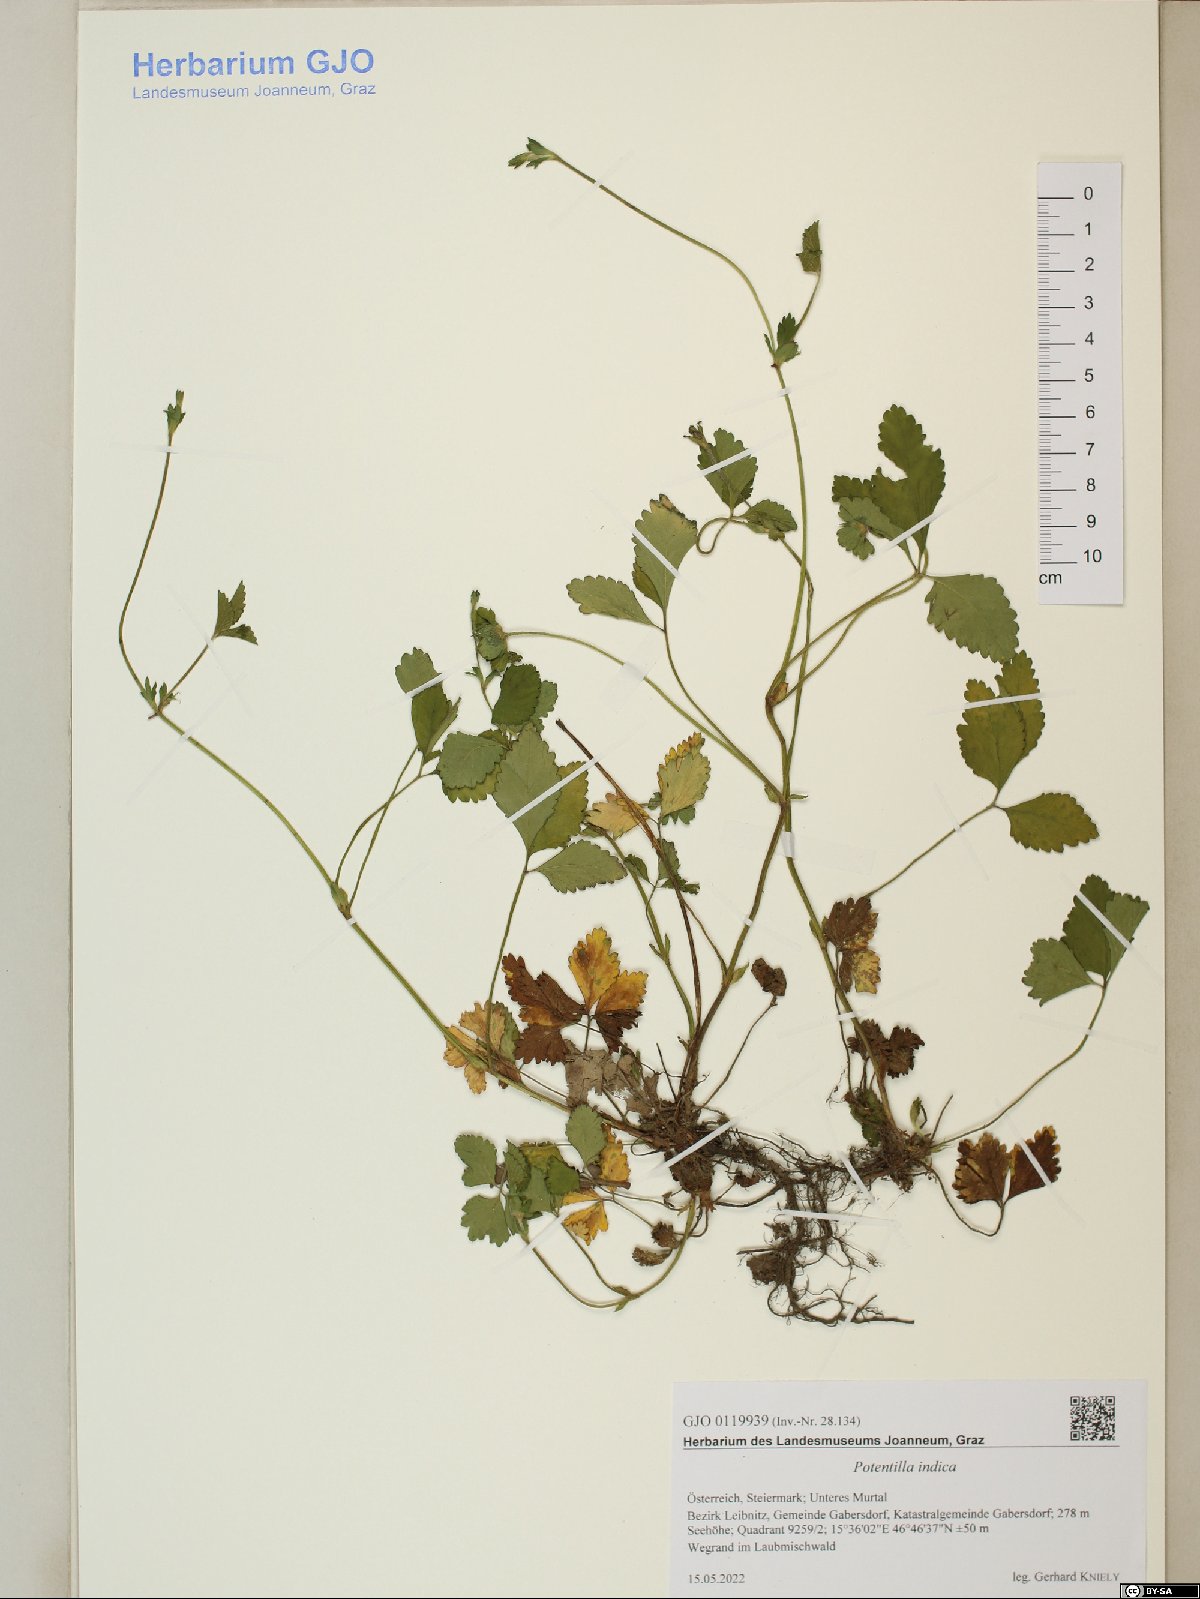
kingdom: Plantae
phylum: Tracheophyta
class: Magnoliopsida
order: Rosales
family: Rosaceae
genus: Potentilla
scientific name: Potentilla indica
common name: Yellow-flowered strawberry
